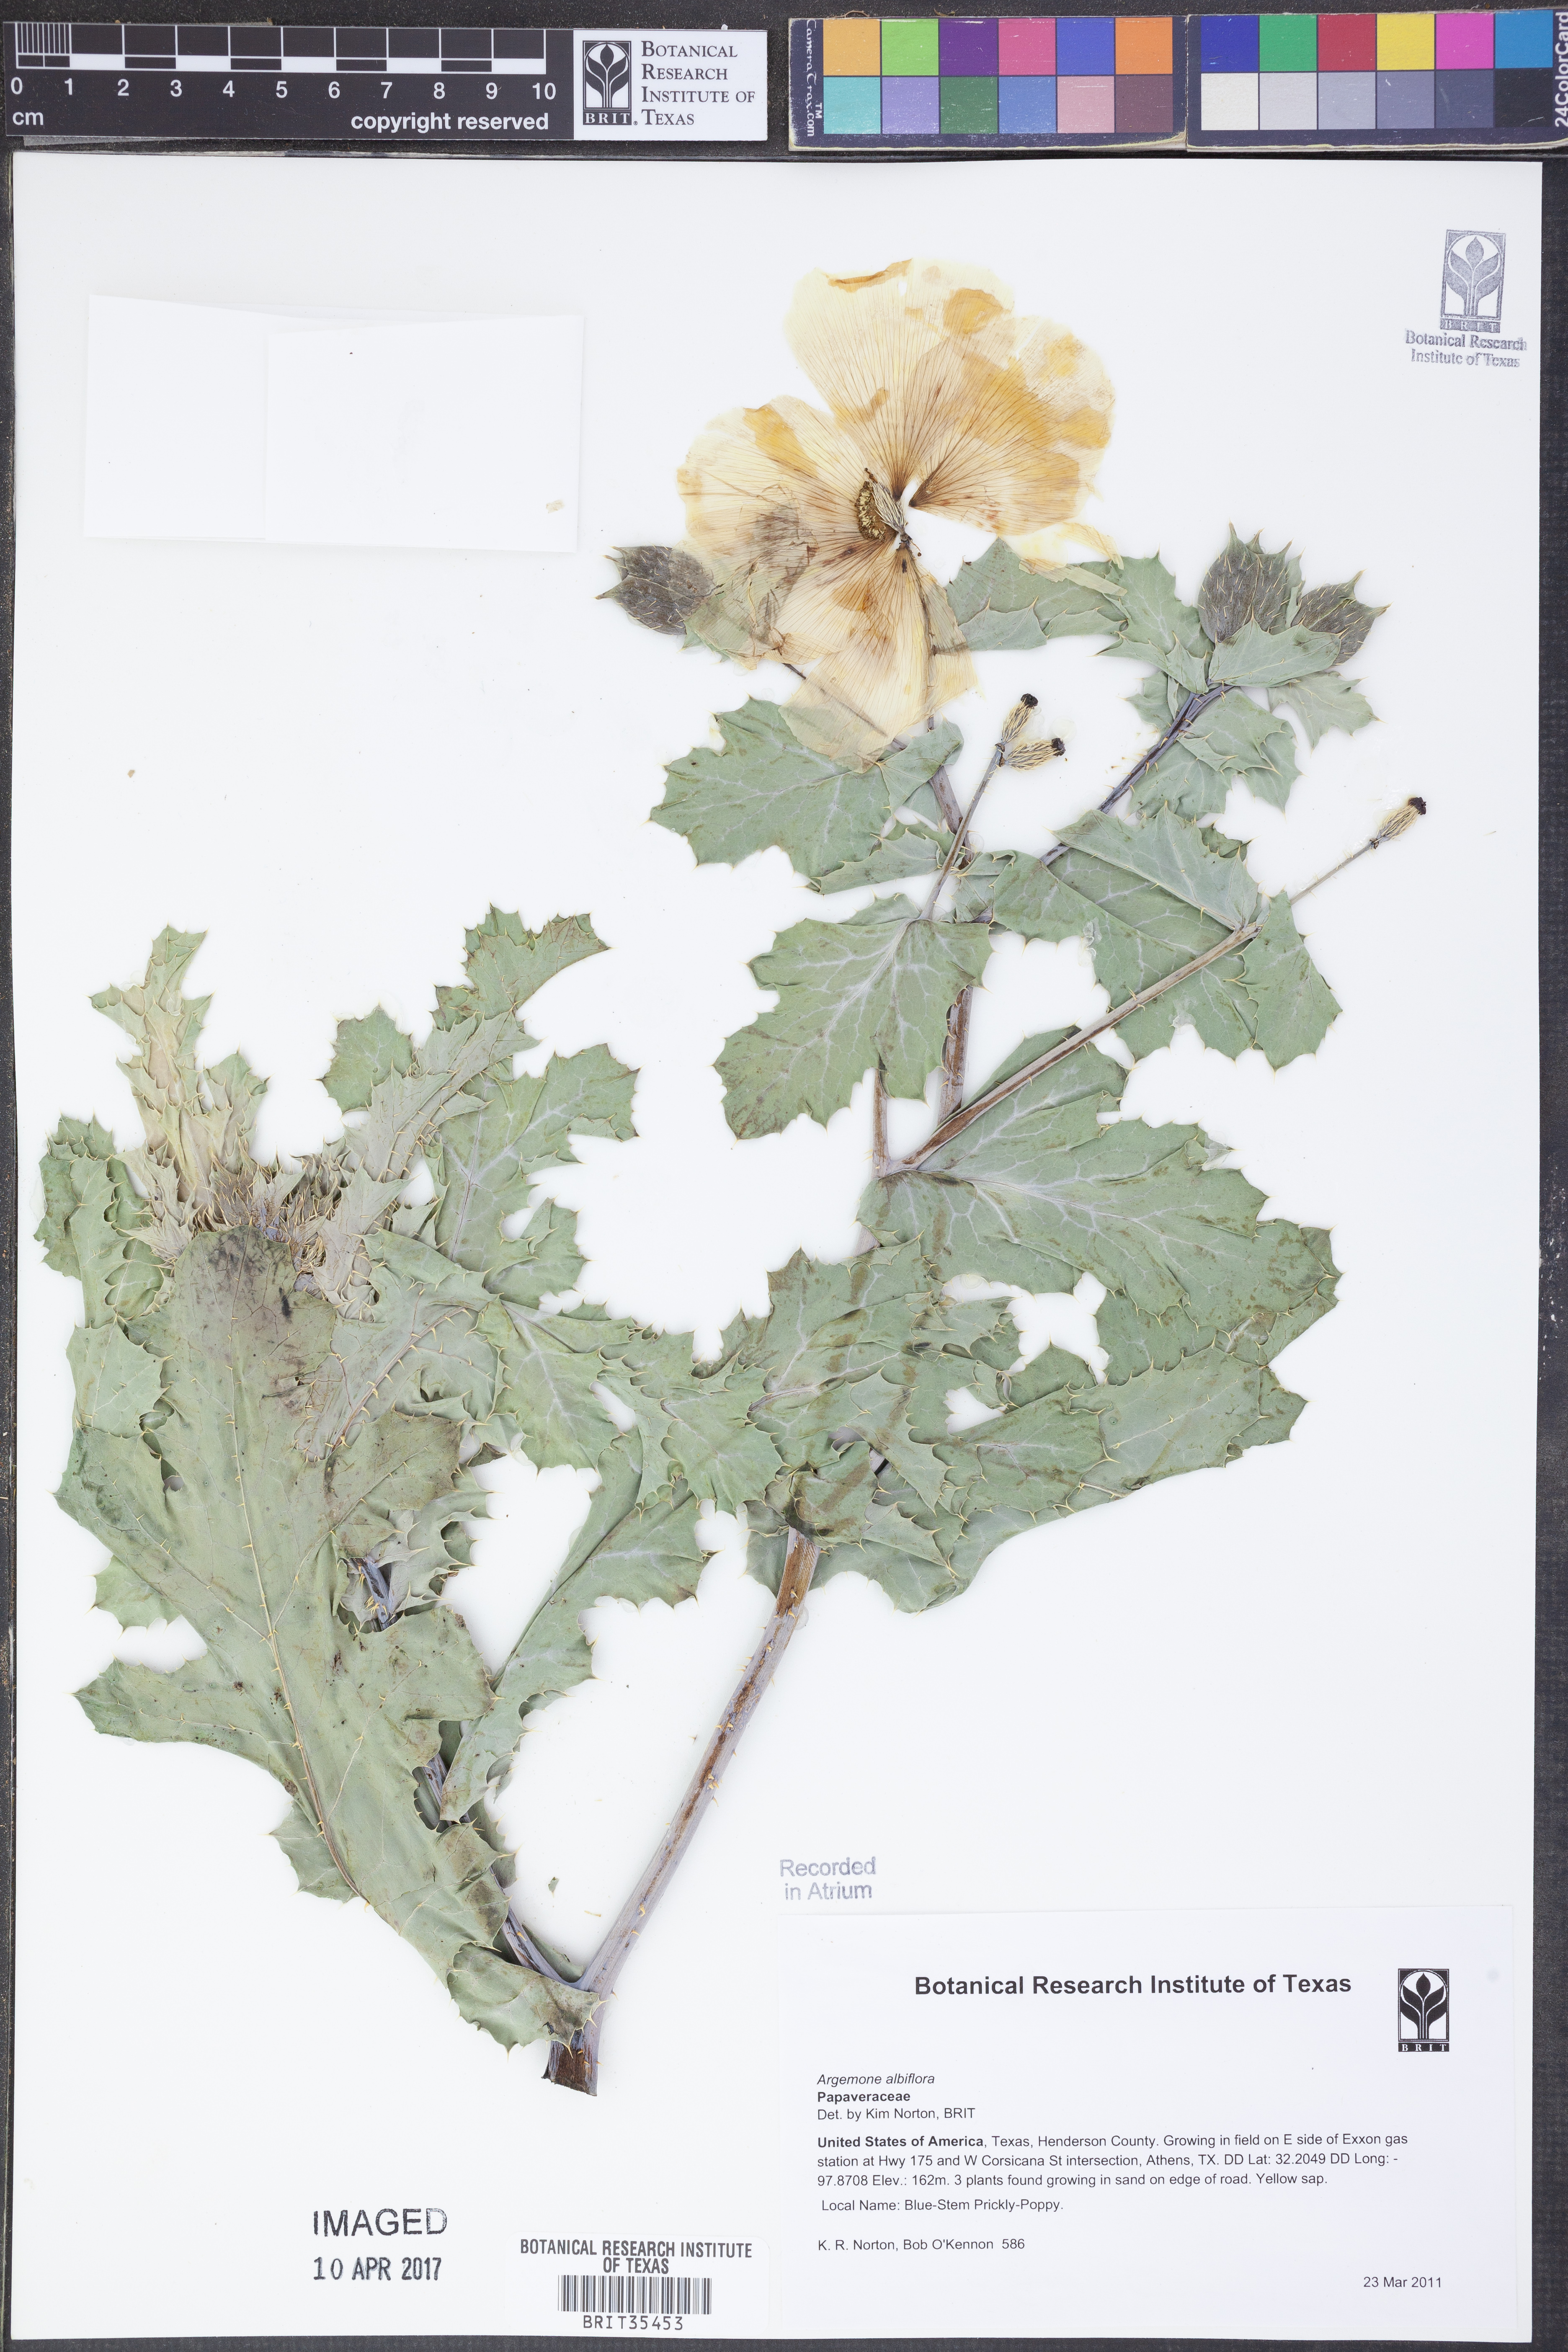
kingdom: Plantae
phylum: Tracheophyta
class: Magnoliopsida
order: Ranunculales
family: Papaveraceae
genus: Argemone
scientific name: Argemone albiflora
